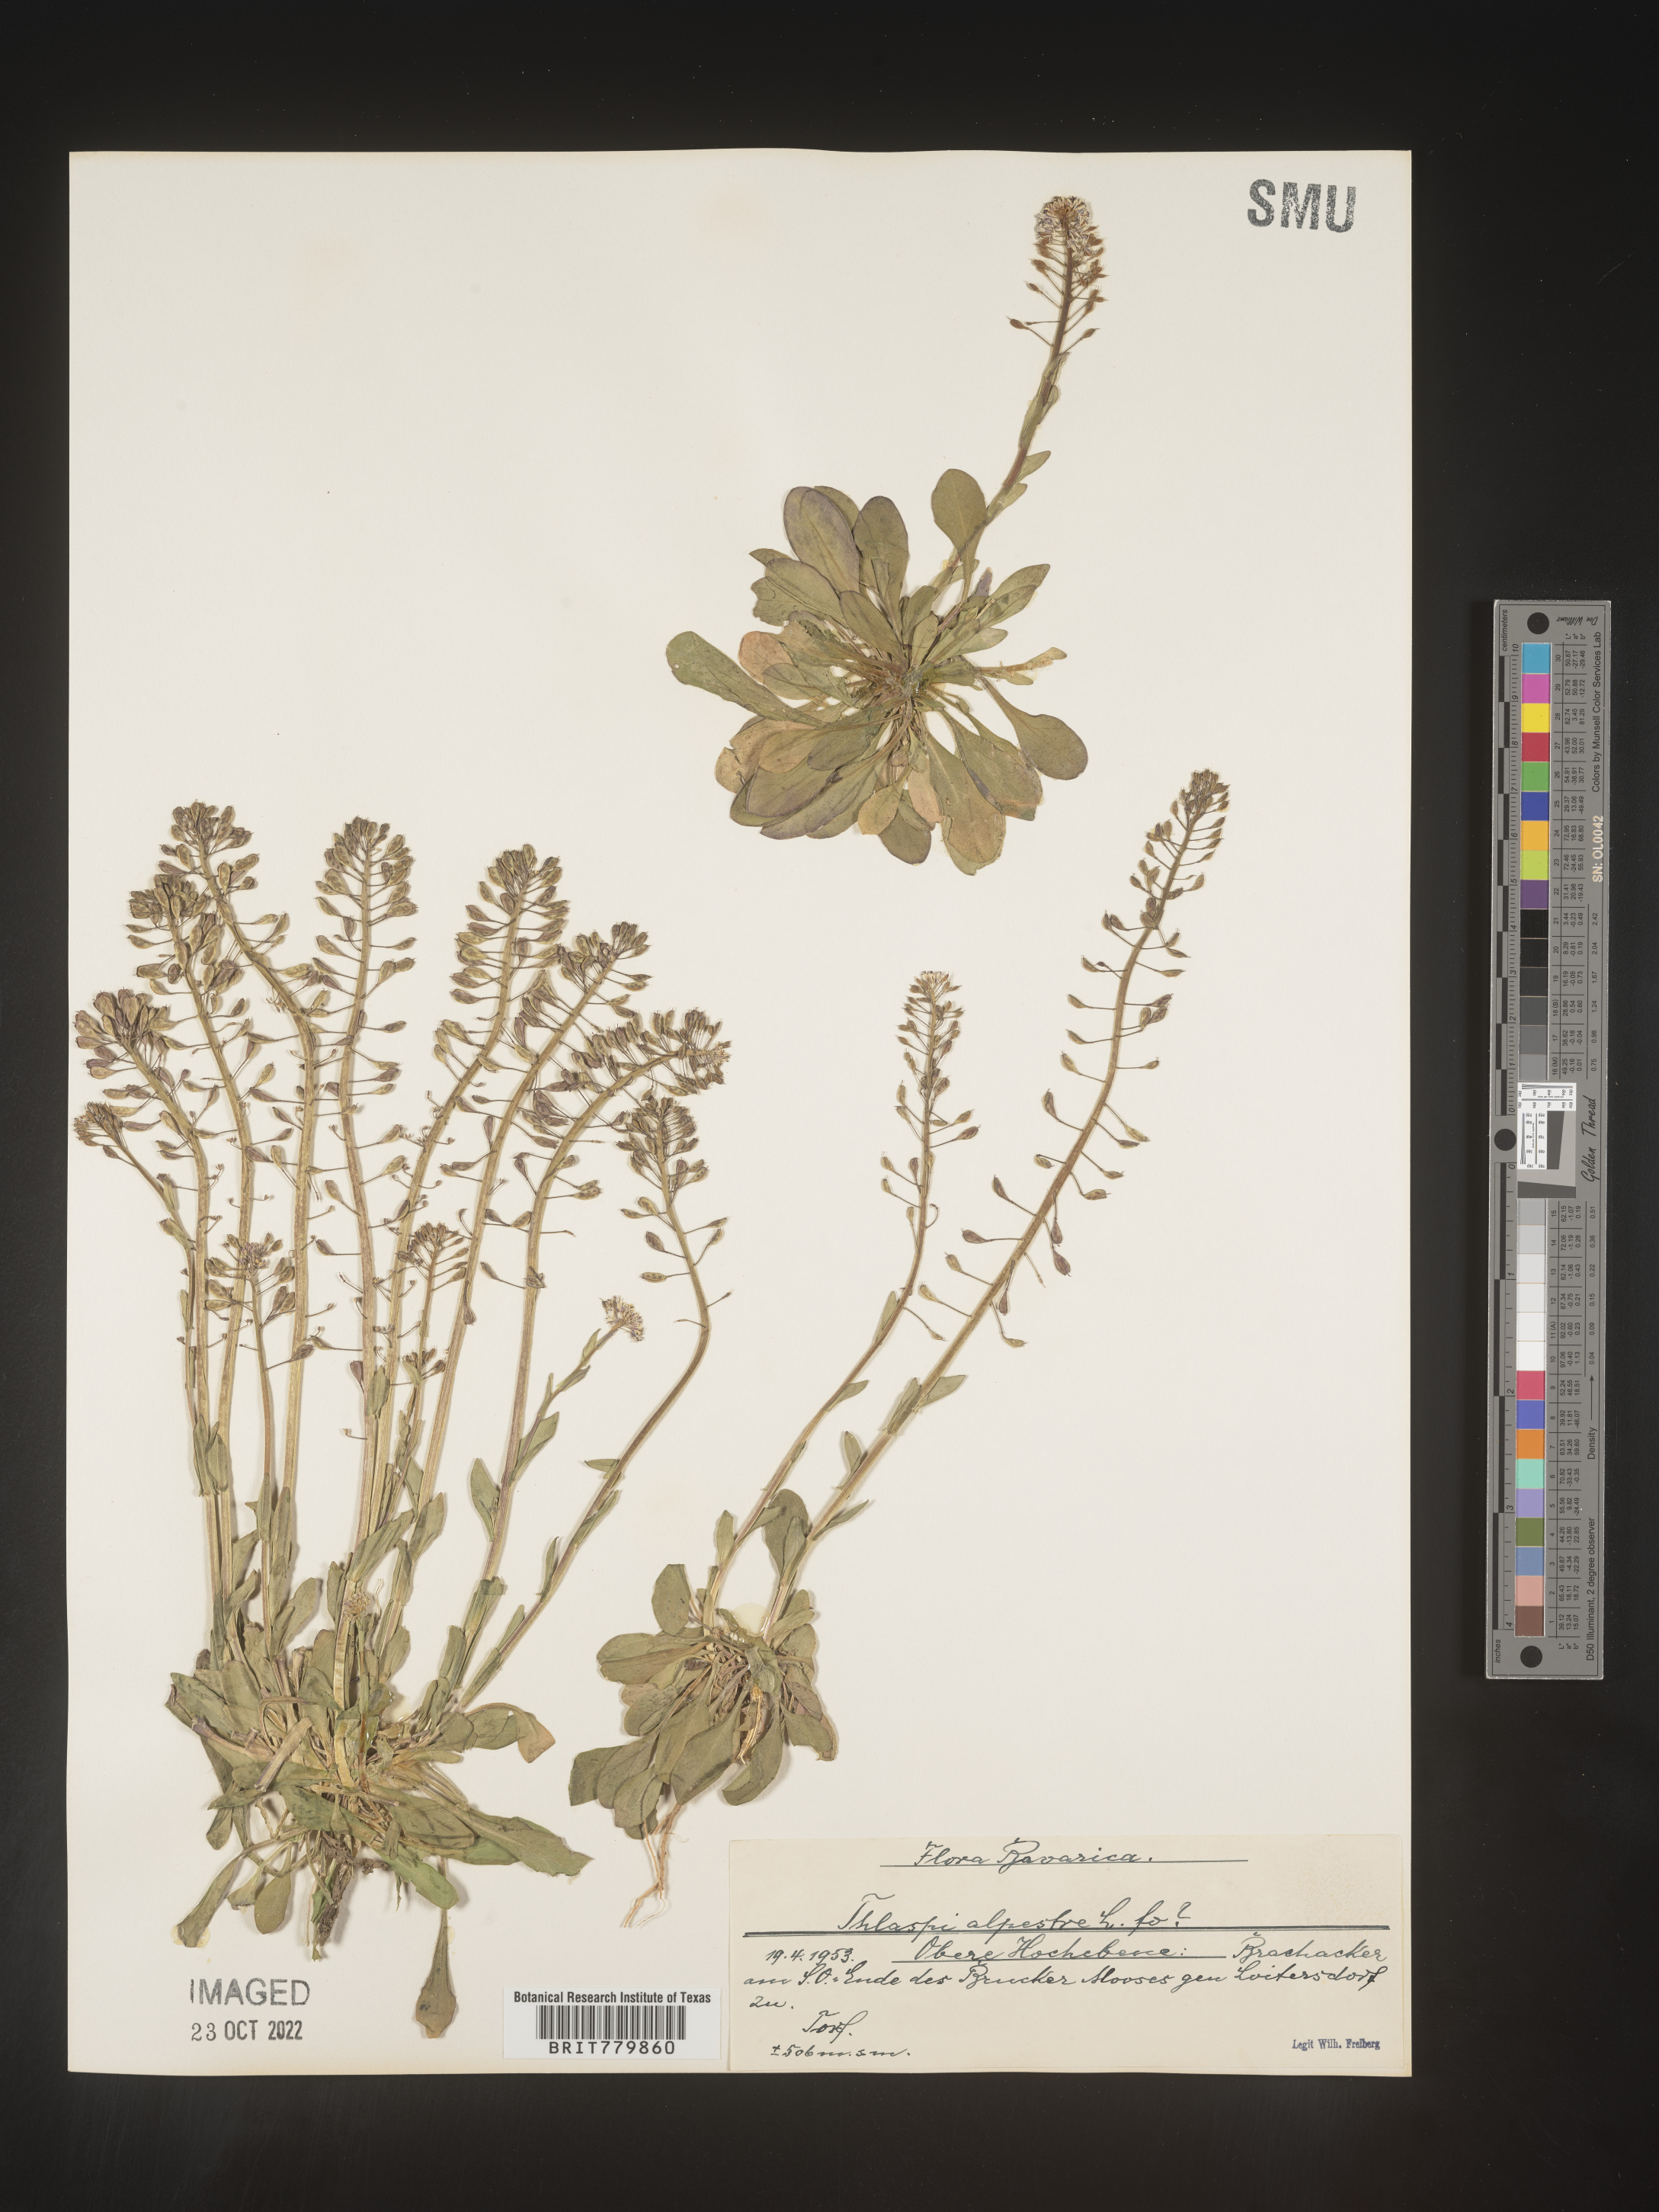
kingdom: Plantae
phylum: Tracheophyta
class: Magnoliopsida
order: Brassicales
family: Brassicaceae
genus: Thlaspi
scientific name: Thlaspi
